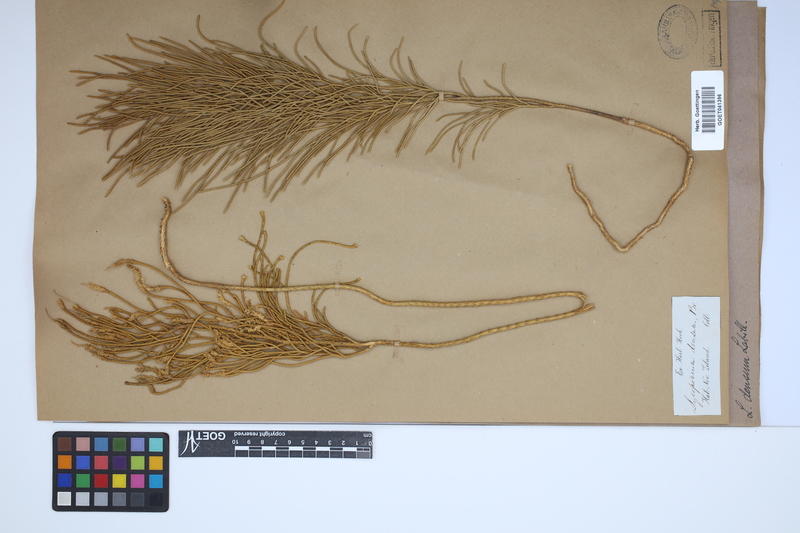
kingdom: Plantae
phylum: Tracheophyta
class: Lycopodiopsida
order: Lycopodiales
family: Lycopodiaceae
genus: Pseudolycopodium
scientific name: Pseudolycopodium densum
